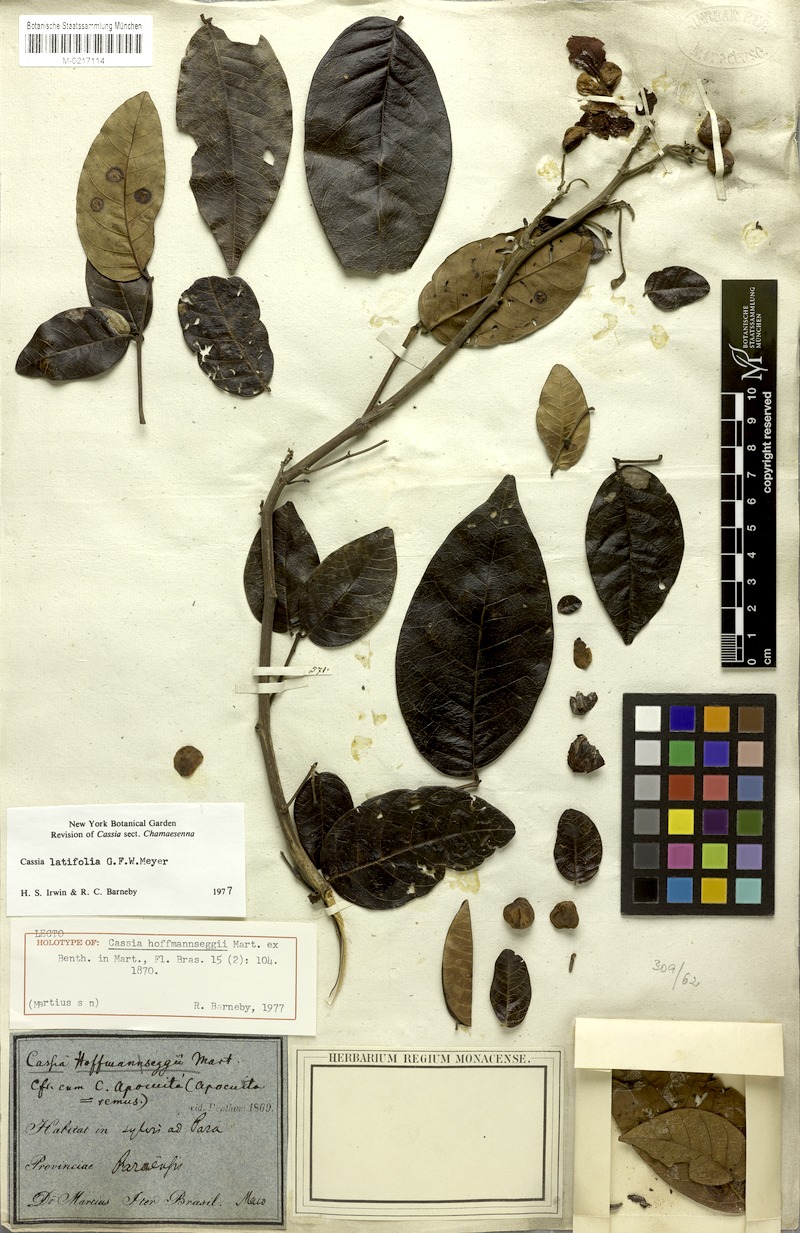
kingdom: Plantae
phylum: Tracheophyta
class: Magnoliopsida
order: Fabales
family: Fabaceae
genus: Senna
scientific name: Senna latifolia
